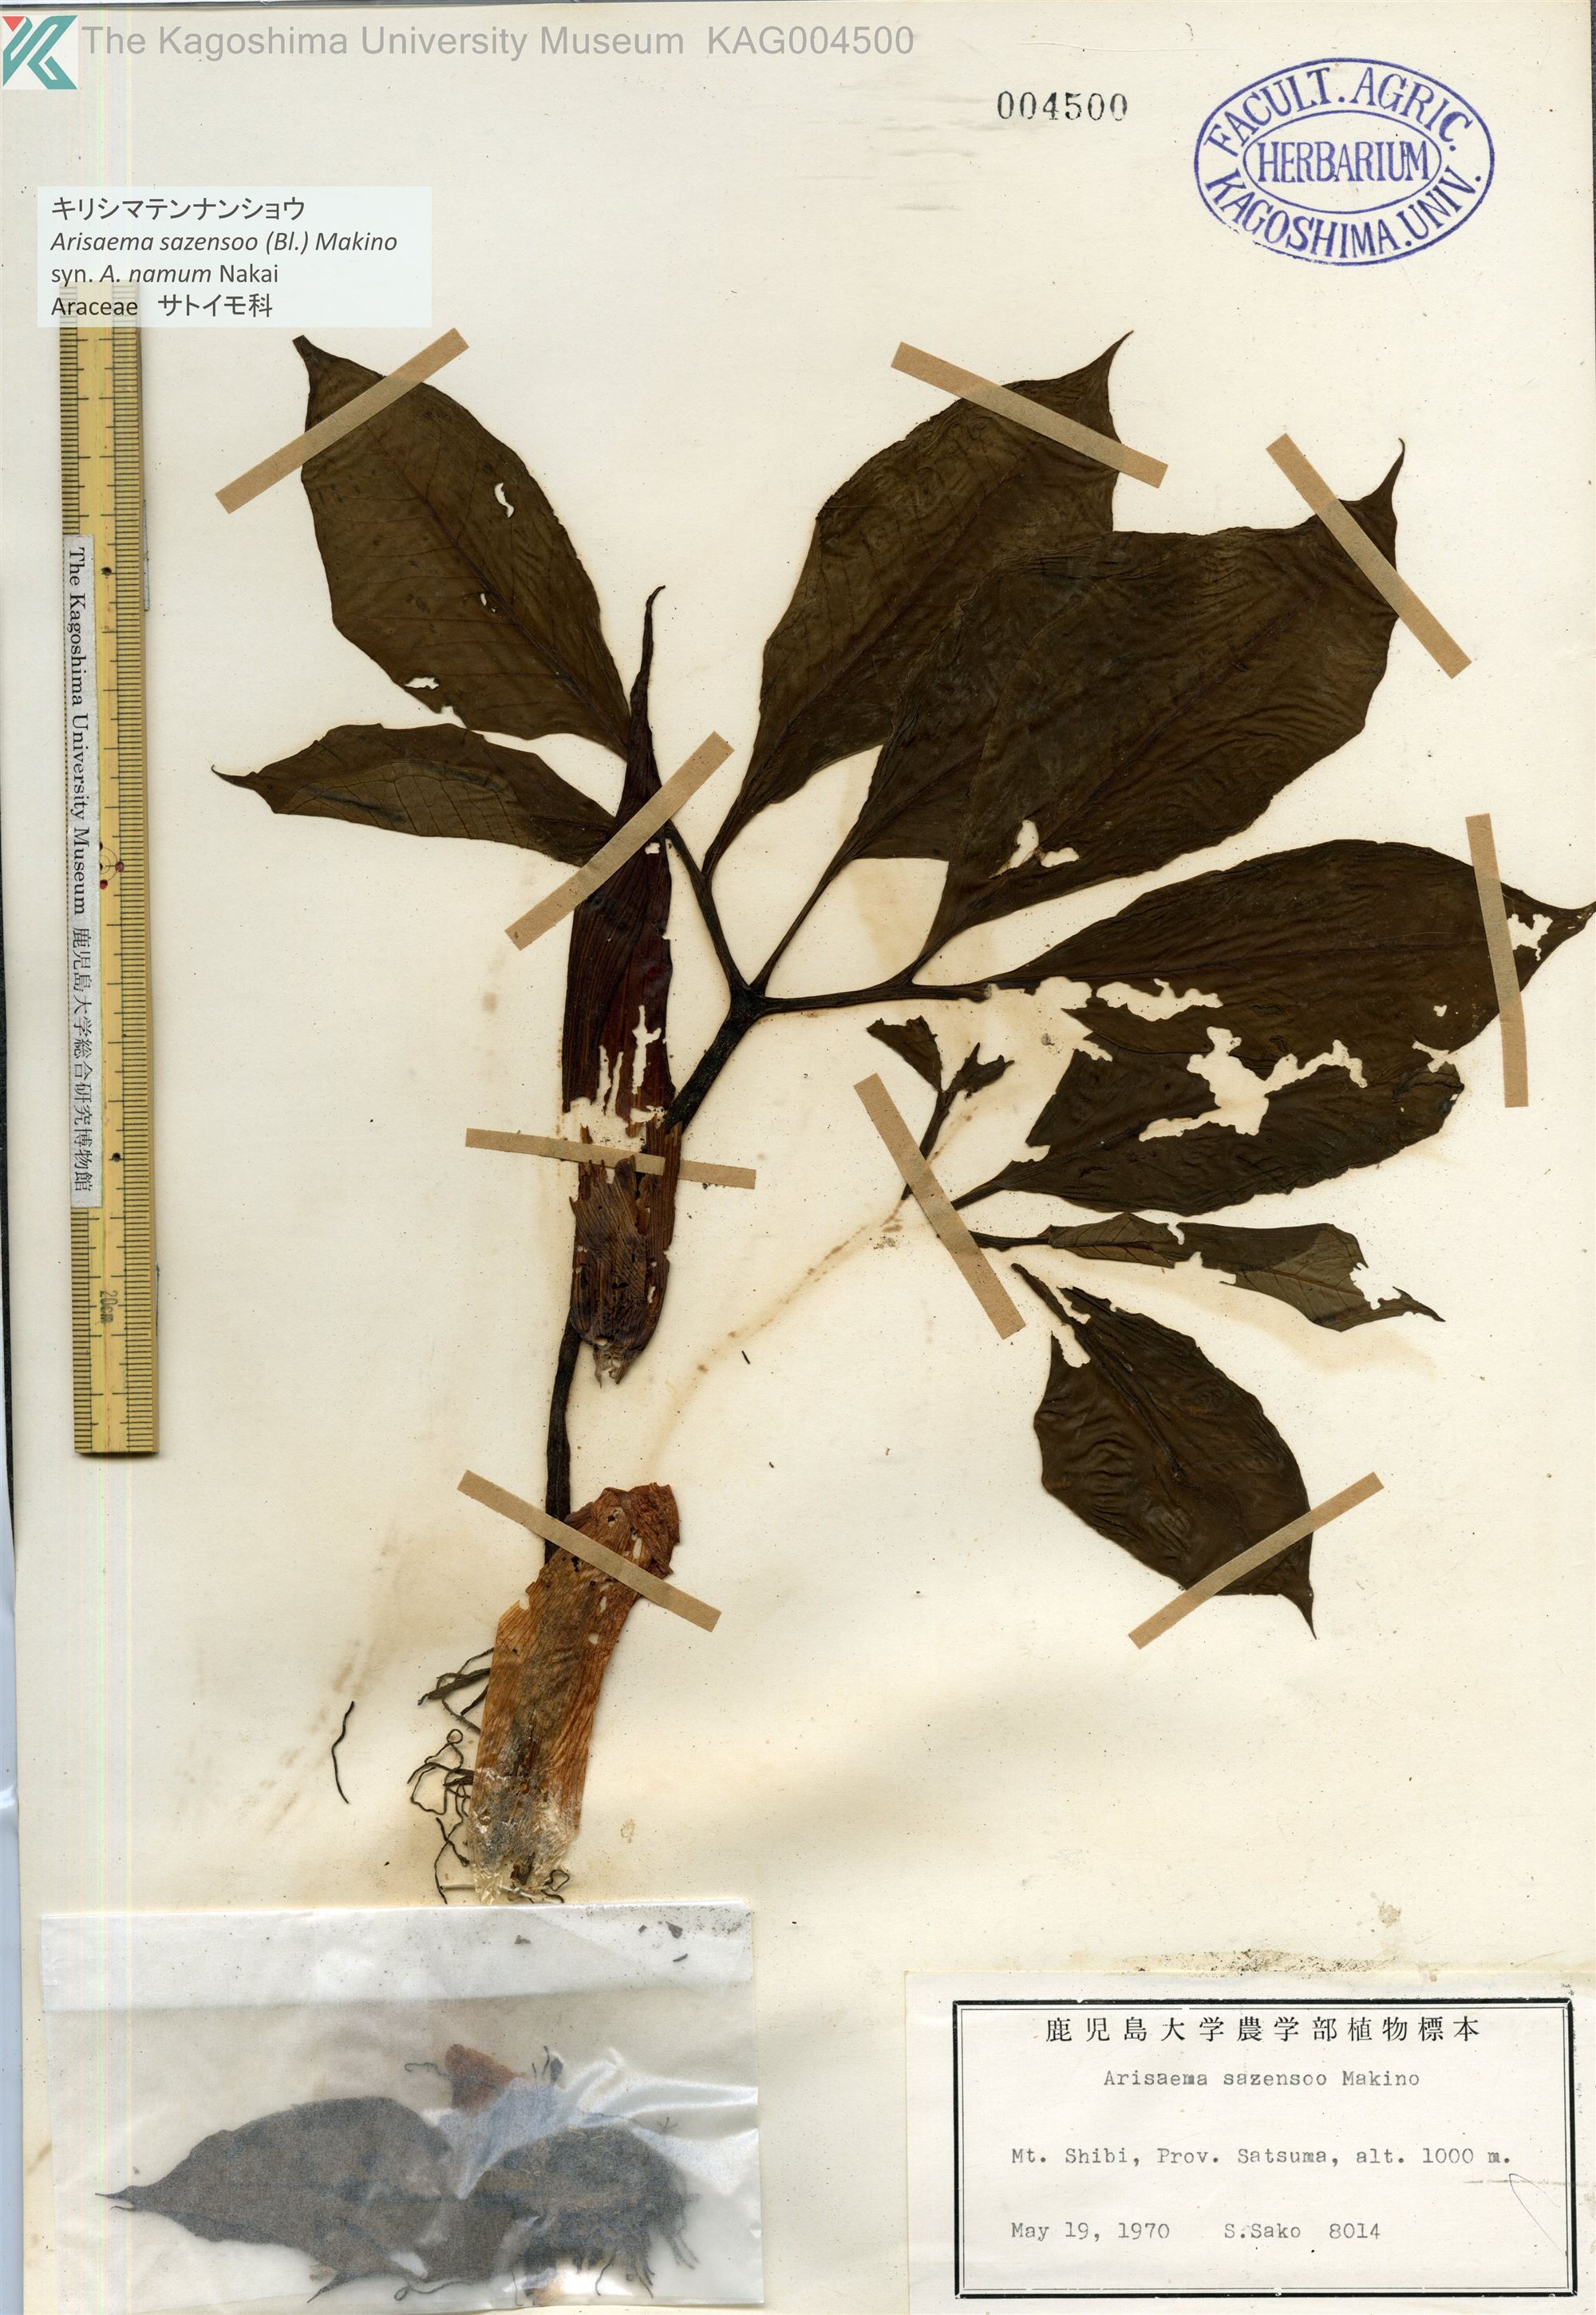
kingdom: Plantae
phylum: Tracheophyta
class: Liliopsida
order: Alismatales
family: Araceae
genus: Arisaema
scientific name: Arisaema sazensoo
